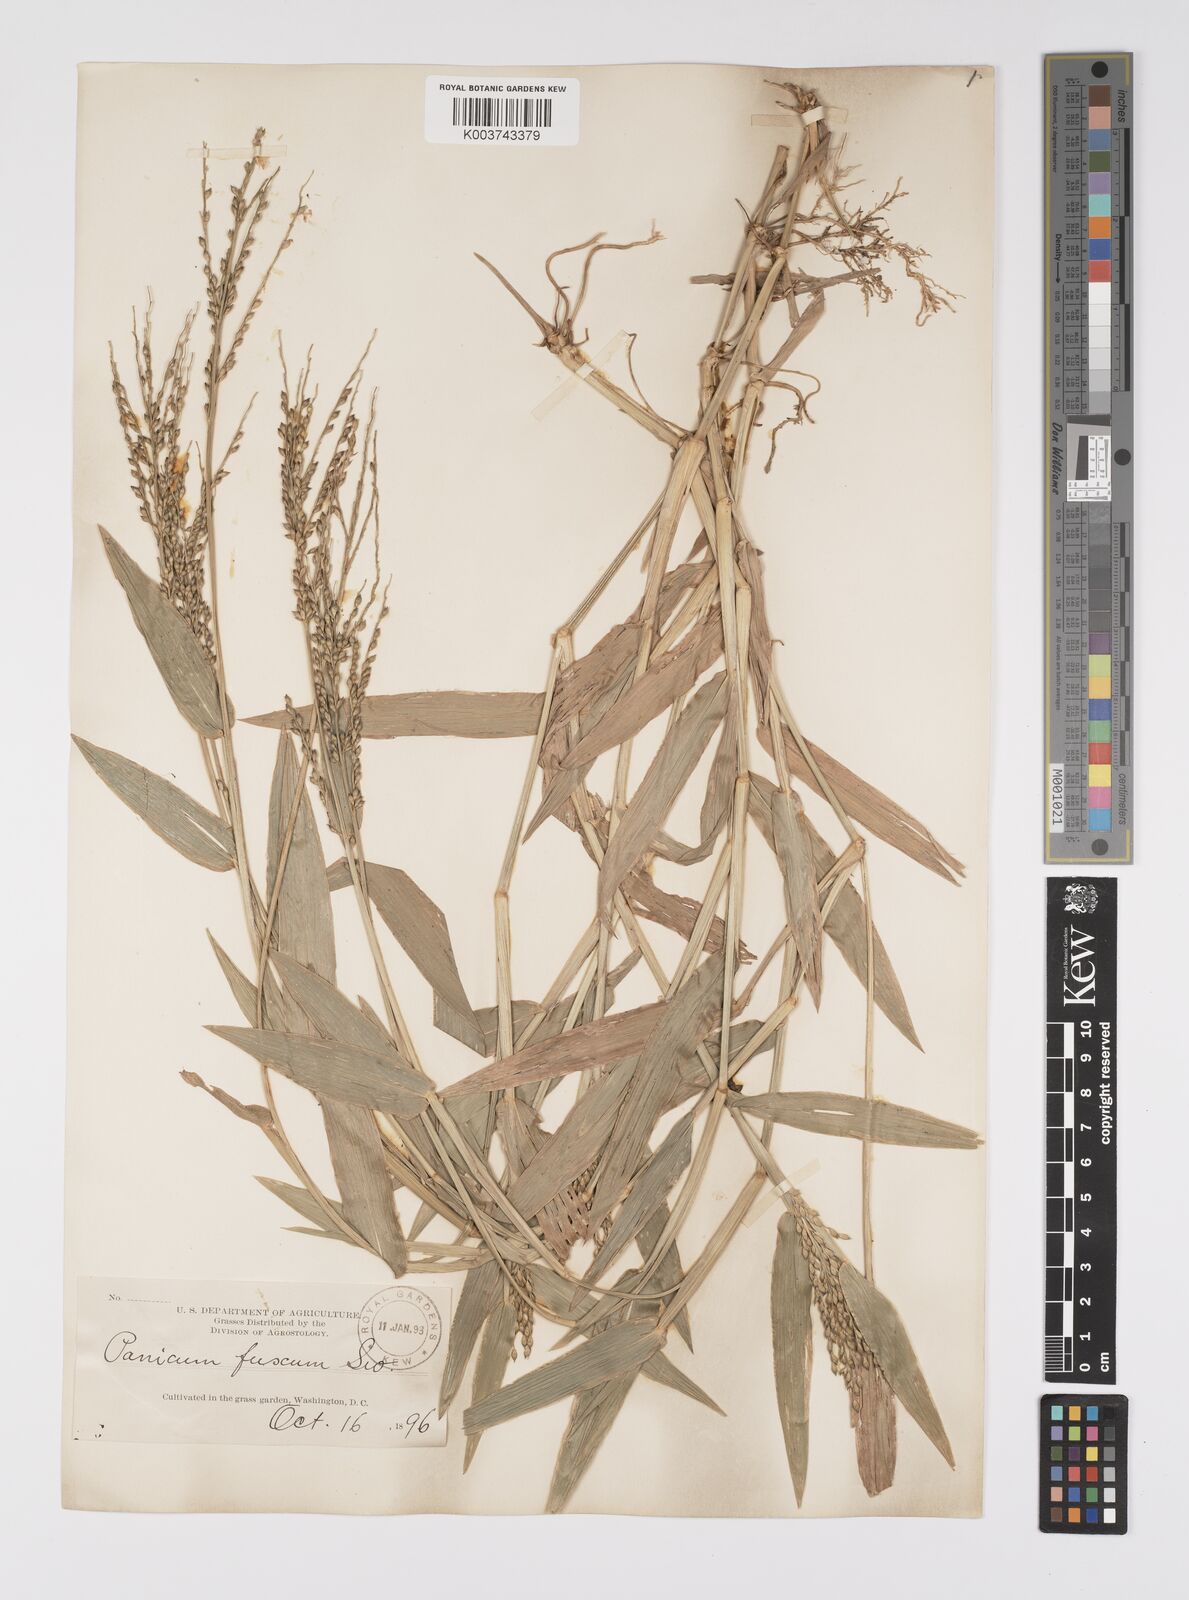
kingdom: Plantae
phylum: Tracheophyta
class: Liliopsida
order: Poales
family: Poaceae
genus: Urochloa
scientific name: Urochloa adspersa
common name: Dominican signal grass
